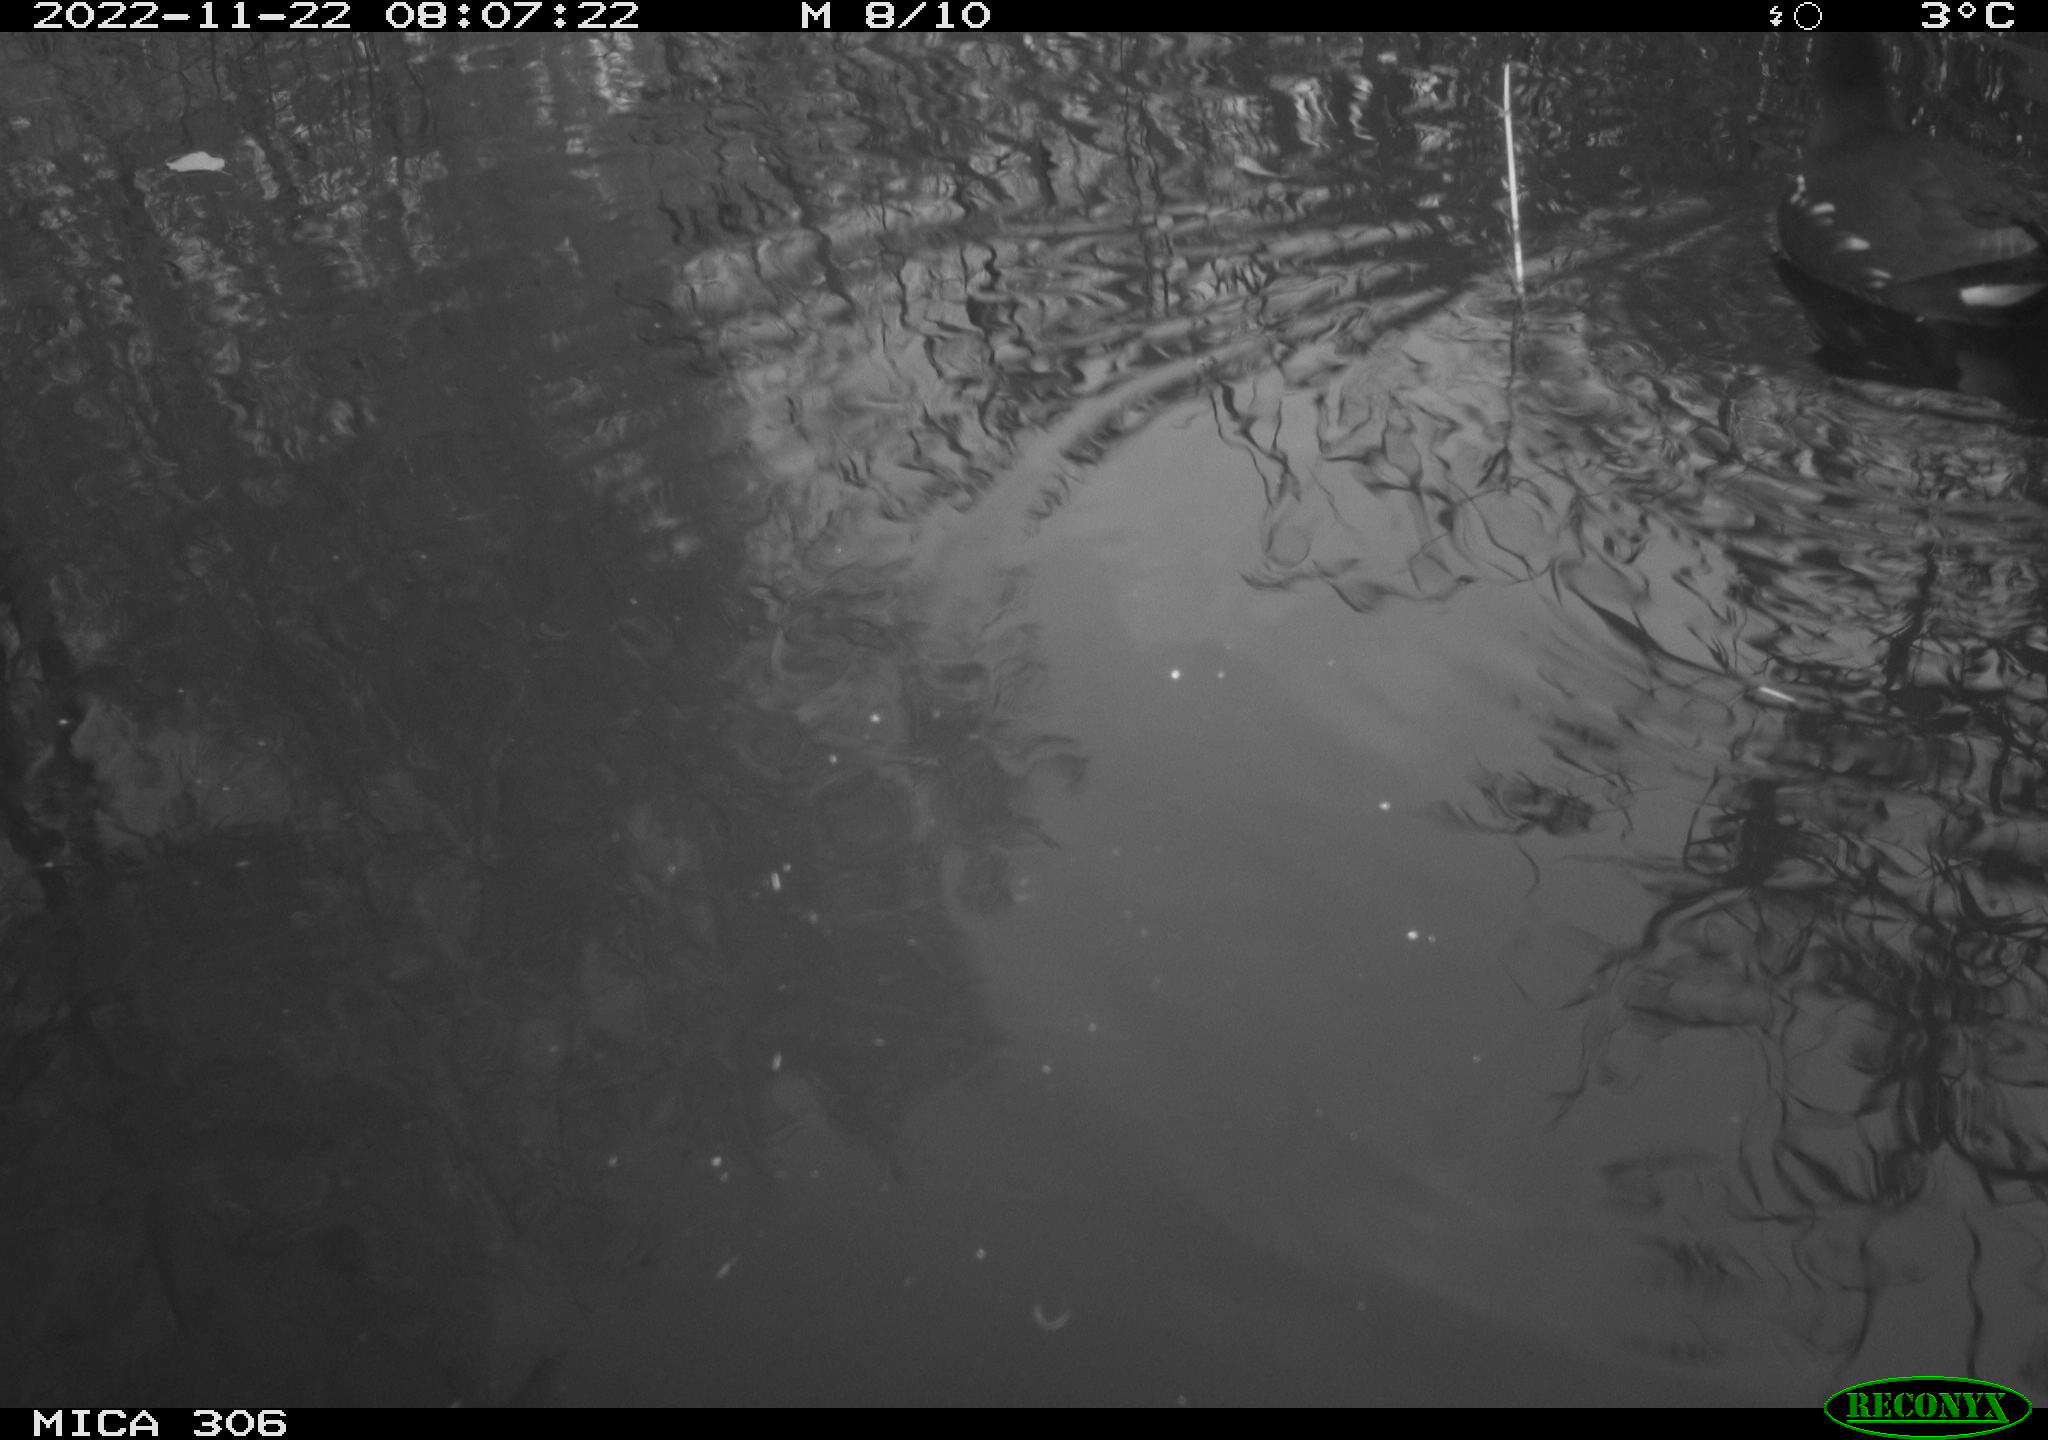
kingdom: Animalia
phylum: Chordata
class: Aves
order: Gruiformes
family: Rallidae
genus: Gallinula
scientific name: Gallinula chloropus
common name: Common moorhen
